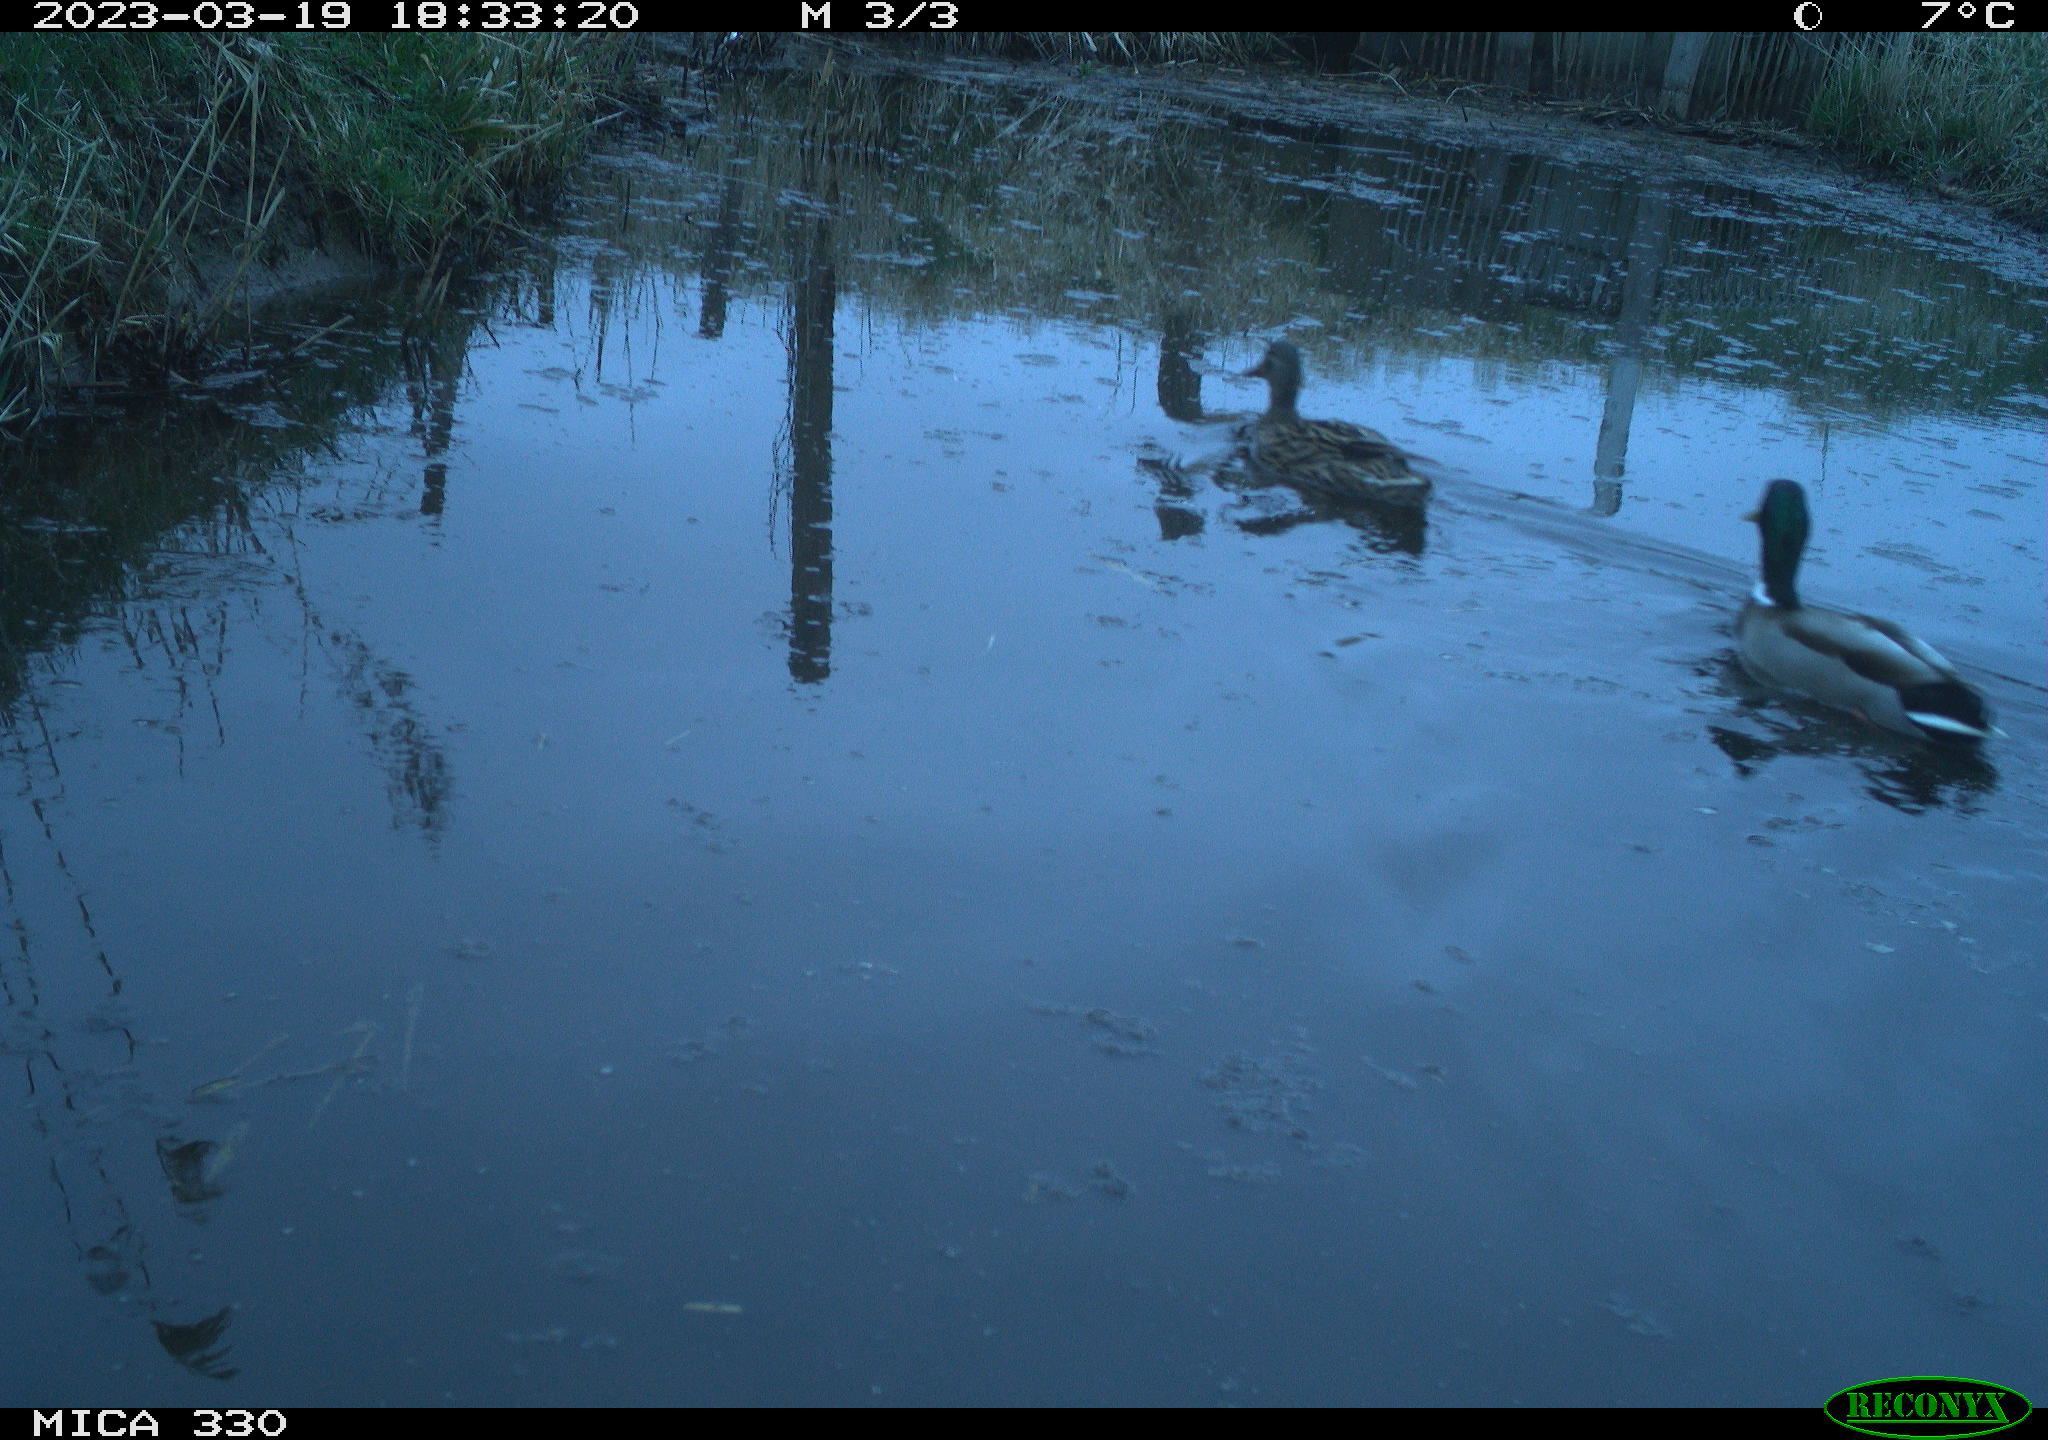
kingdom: Animalia
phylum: Chordata
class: Aves
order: Anseriformes
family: Anatidae
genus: Anas
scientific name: Anas
